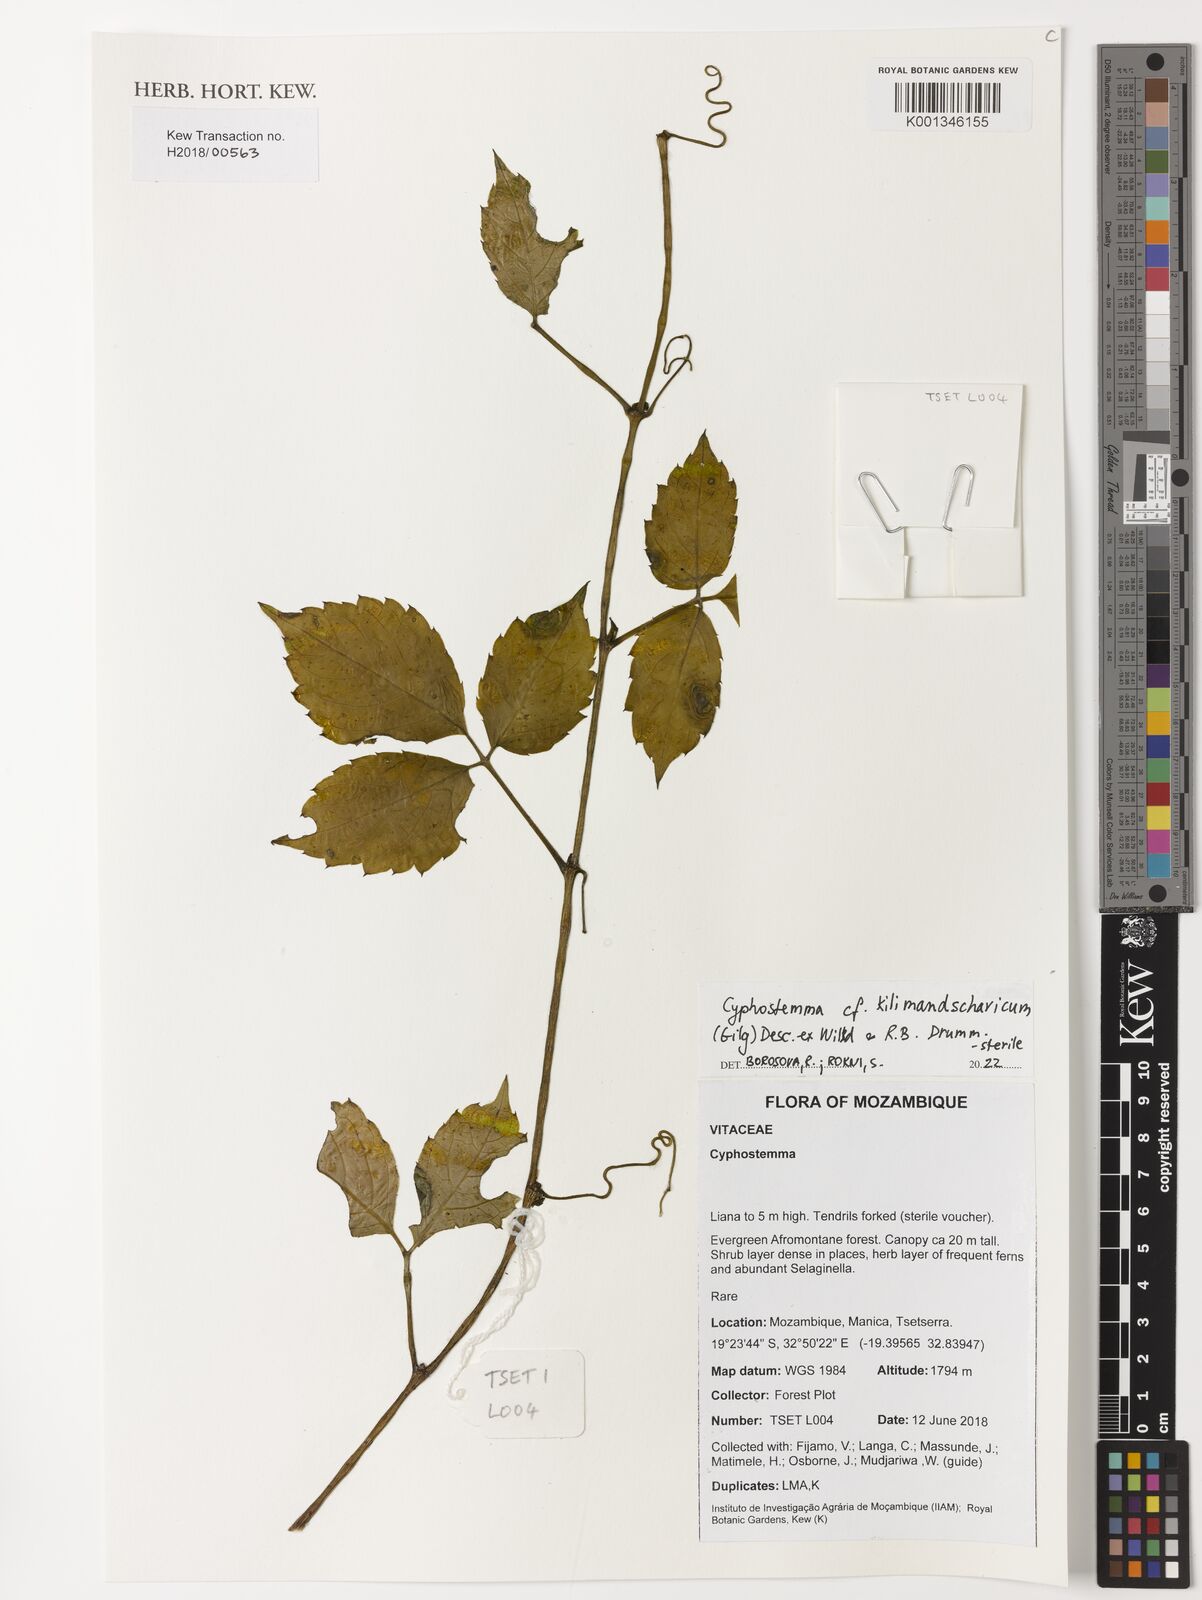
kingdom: Plantae
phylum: Tracheophyta
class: Magnoliopsida
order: Vitales
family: Vitaceae
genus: Cyphostemma
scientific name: Cyphostemma kilimandscharicum
